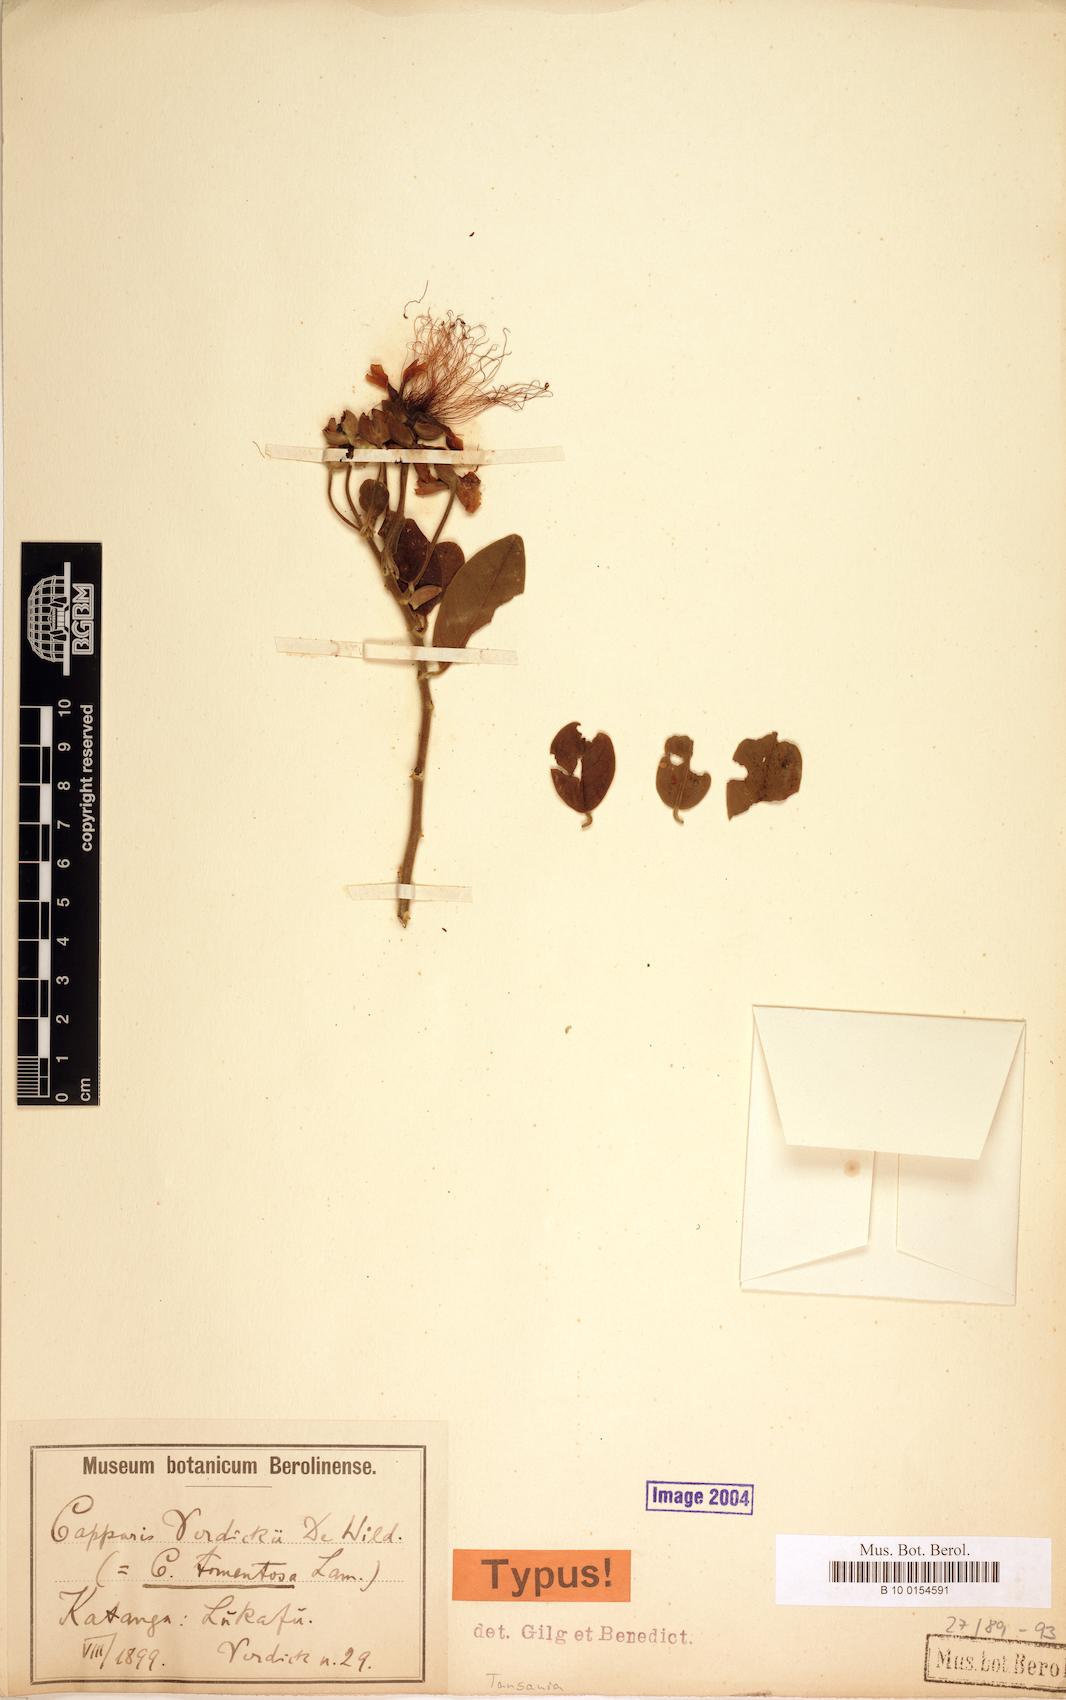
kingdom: Plantae
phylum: Tracheophyta
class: Magnoliopsida
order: Brassicales
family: Capparaceae
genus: Capparis
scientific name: Capparis tomentosa
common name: African caper
